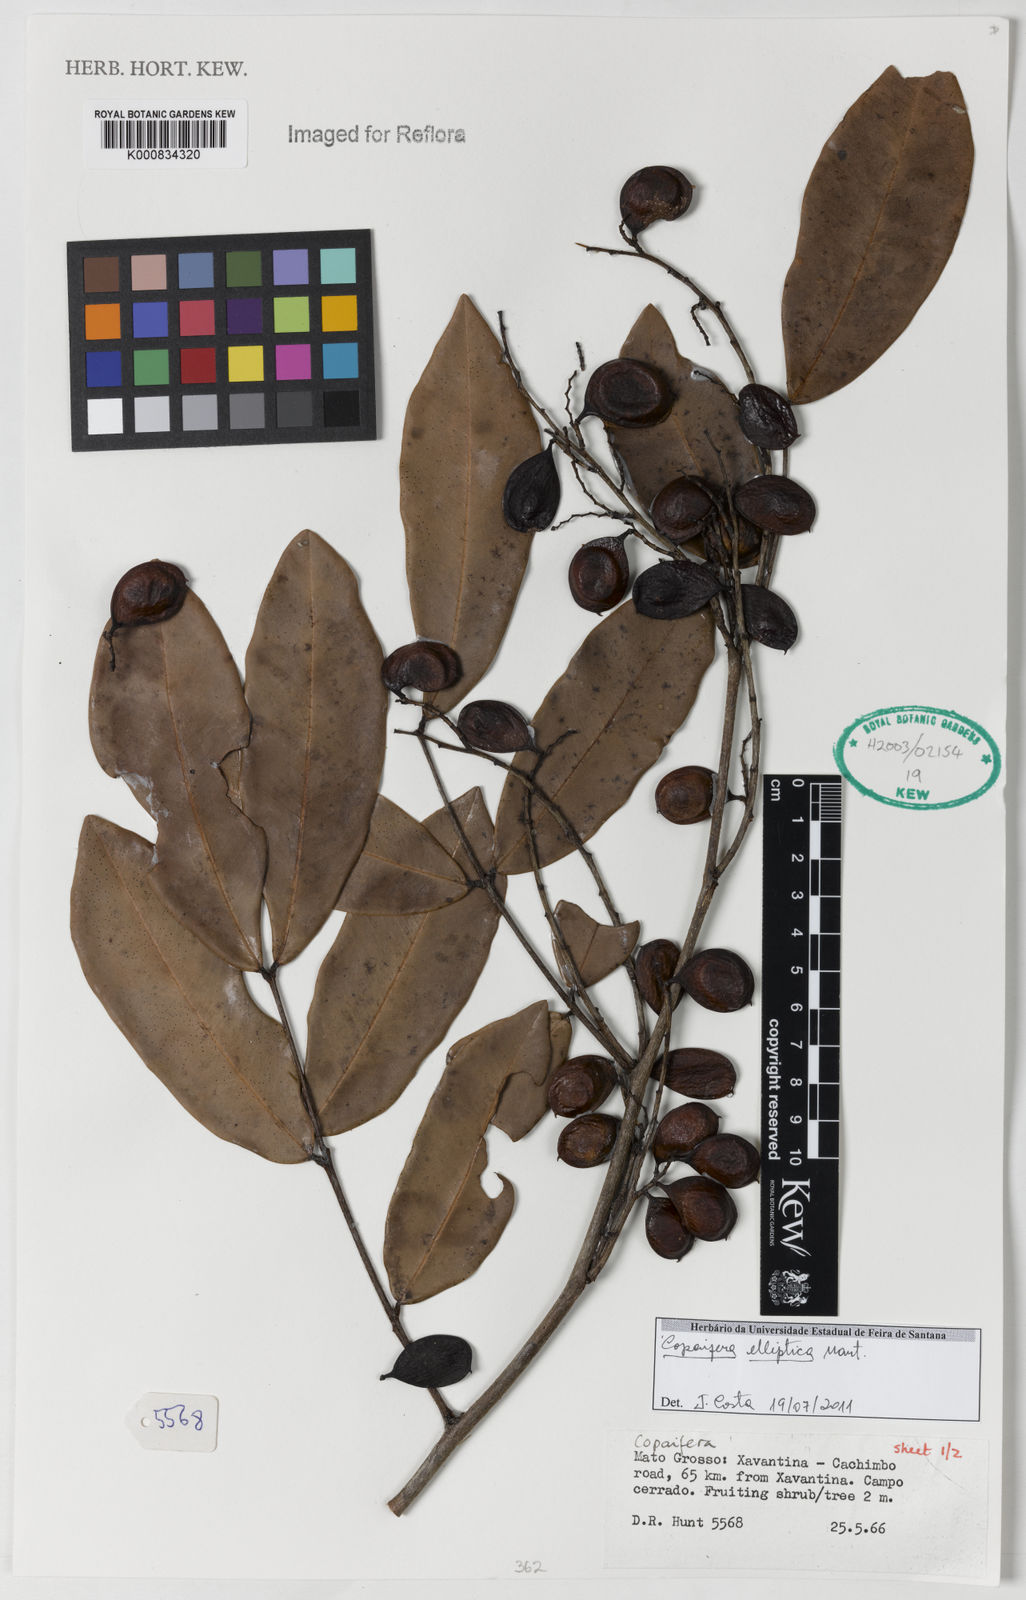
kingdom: Plantae
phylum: Tracheophyta
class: Magnoliopsida
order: Fabales
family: Fabaceae
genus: Copaifera
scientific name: Copaifera elliptica
